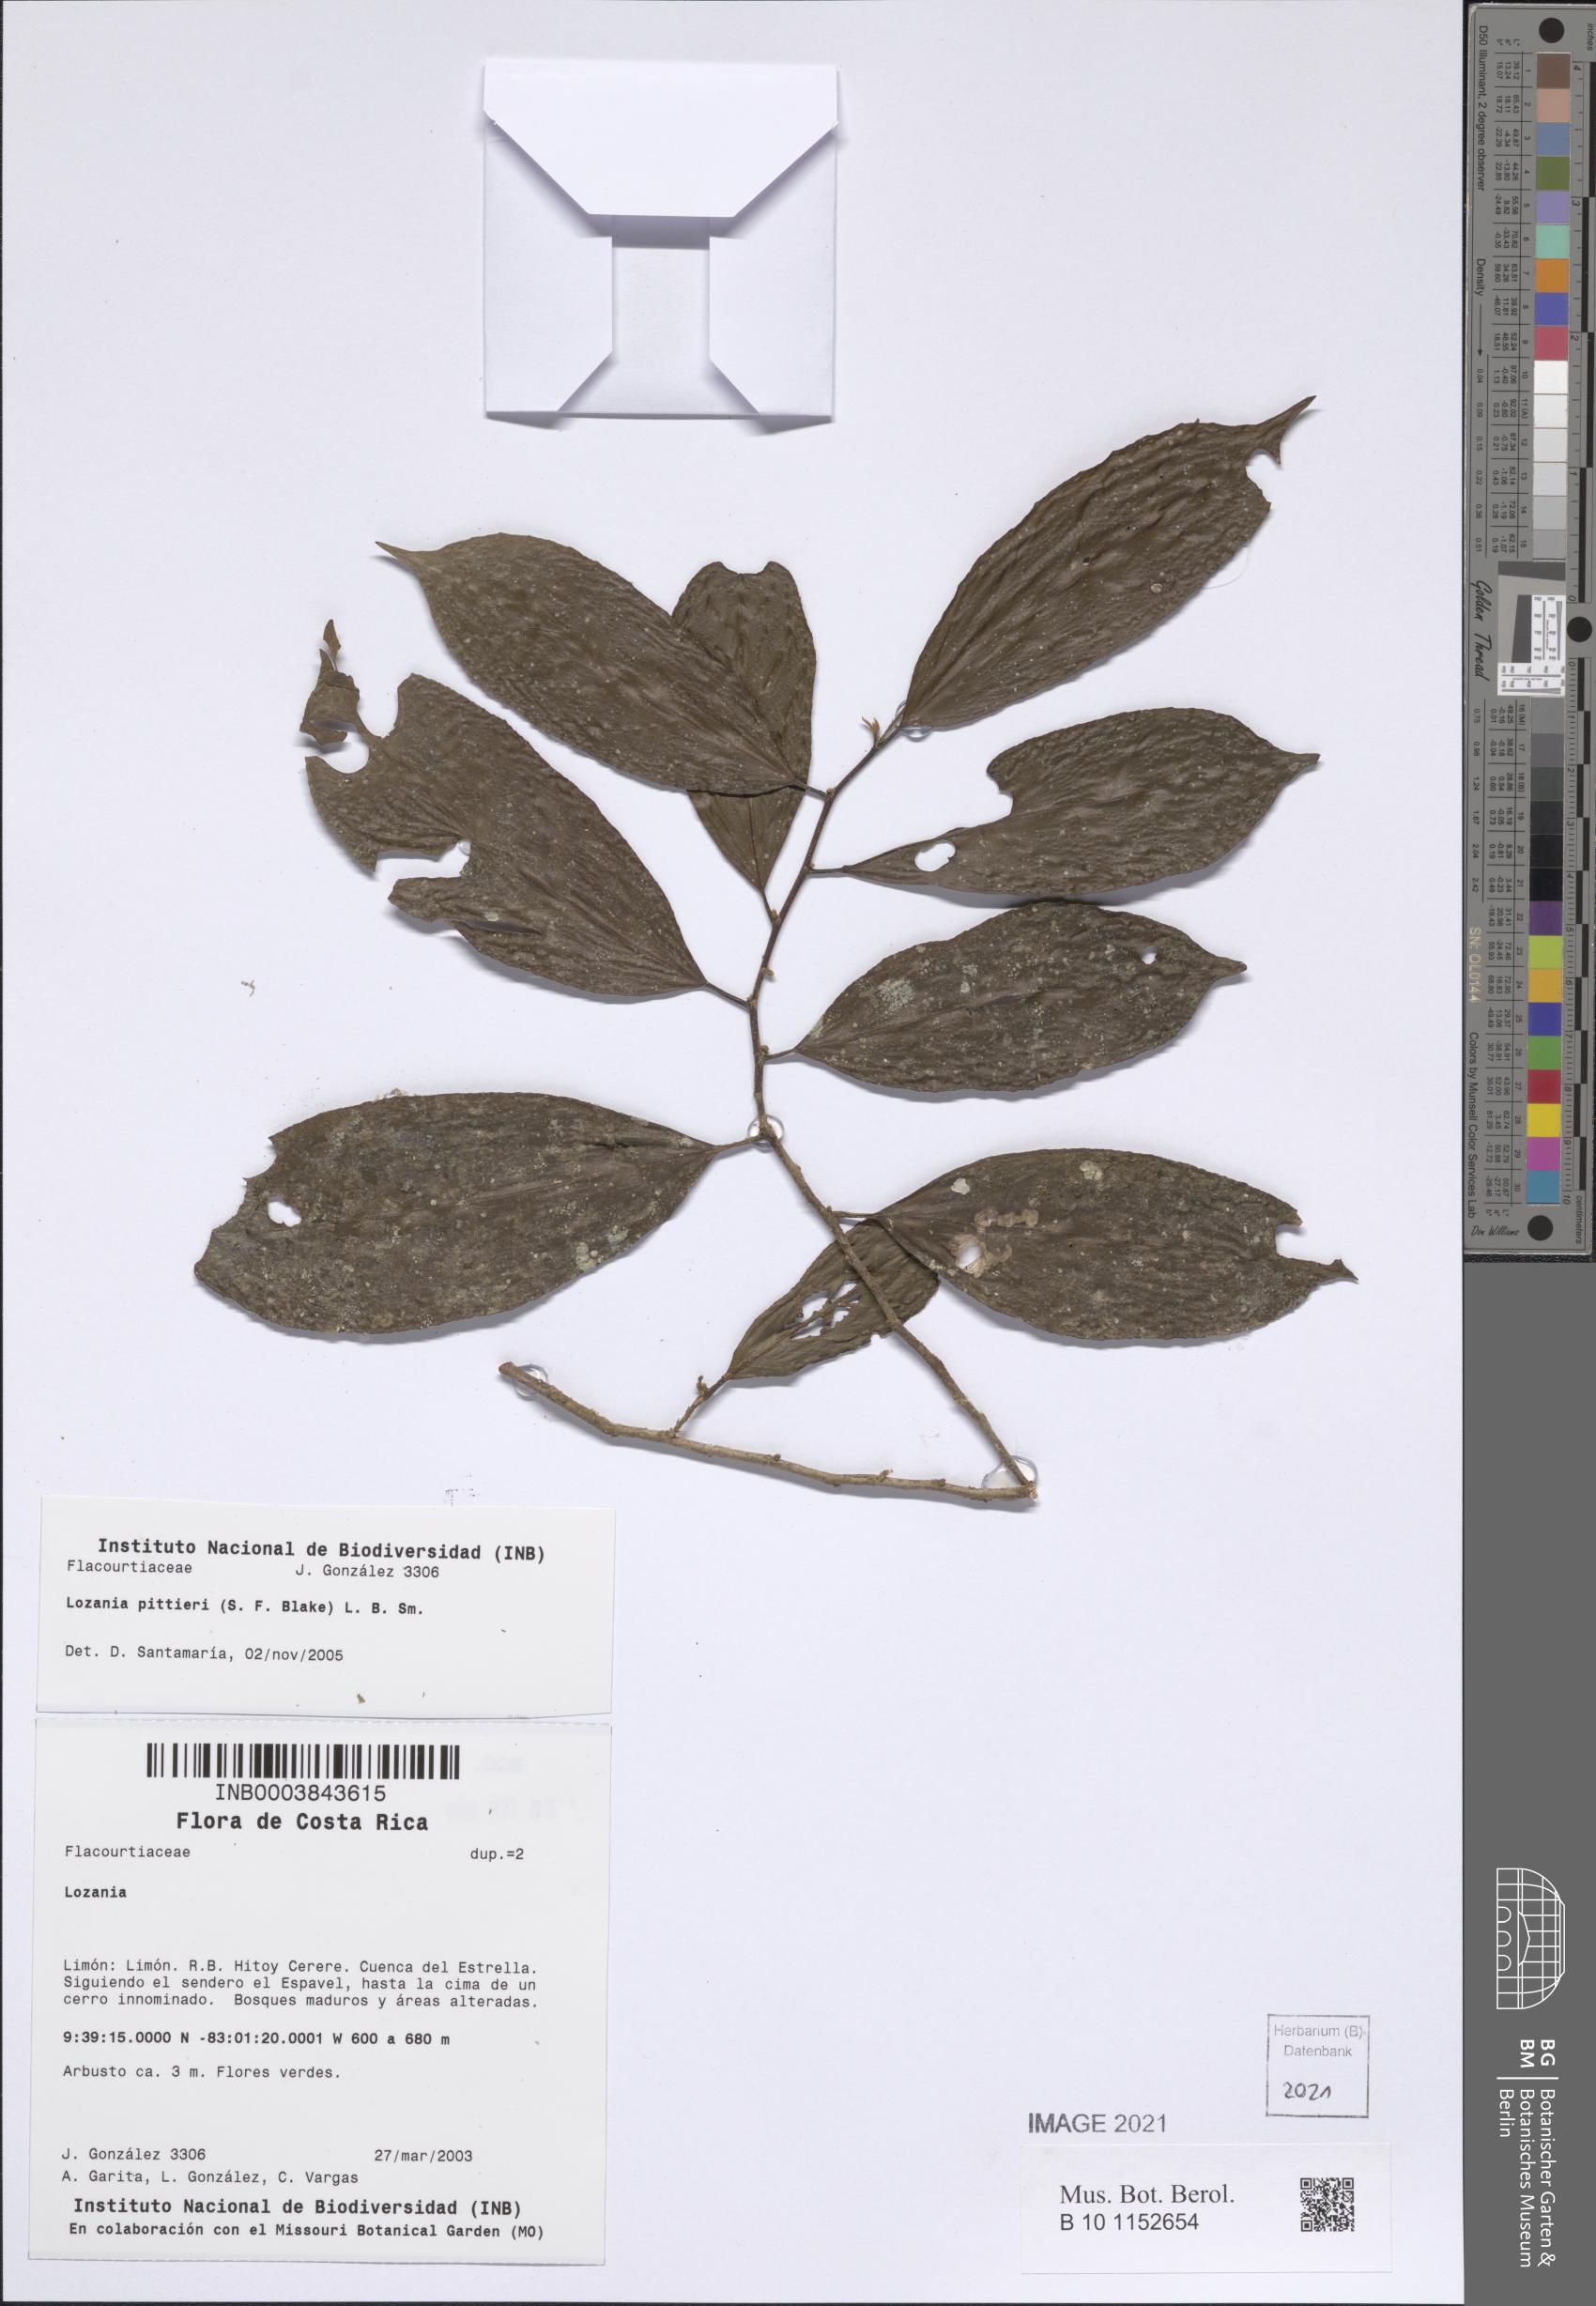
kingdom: Plantae
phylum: Tracheophyta
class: Magnoliopsida
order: Malpighiales
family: Lacistemataceae
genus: Lozania
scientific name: Lozania pittieri
